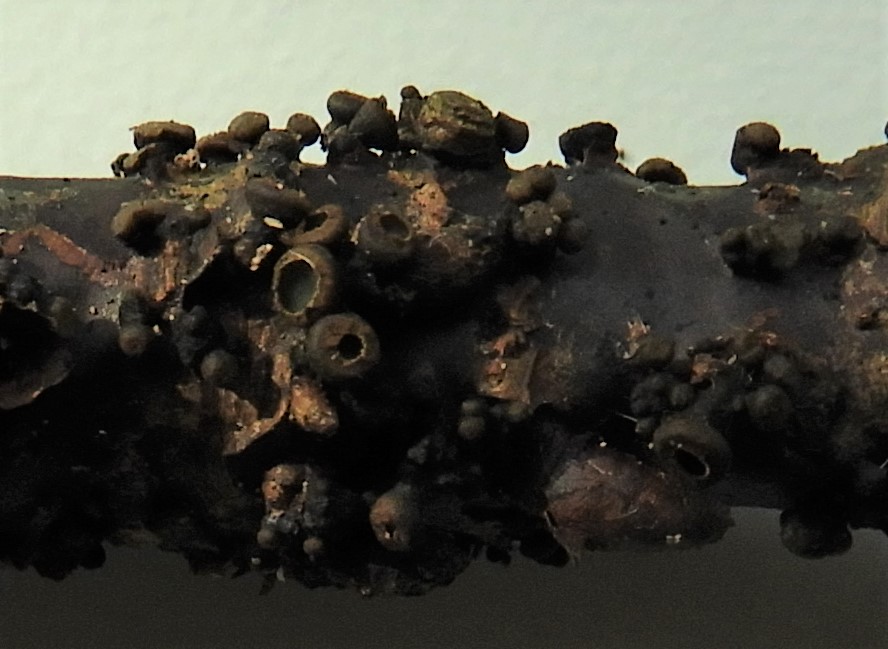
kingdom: Fungi
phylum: Ascomycota
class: Leotiomycetes
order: Helotiales
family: Godroniaceae
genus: Godronia
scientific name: Godronia uberiformis
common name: solbær-urneskive
